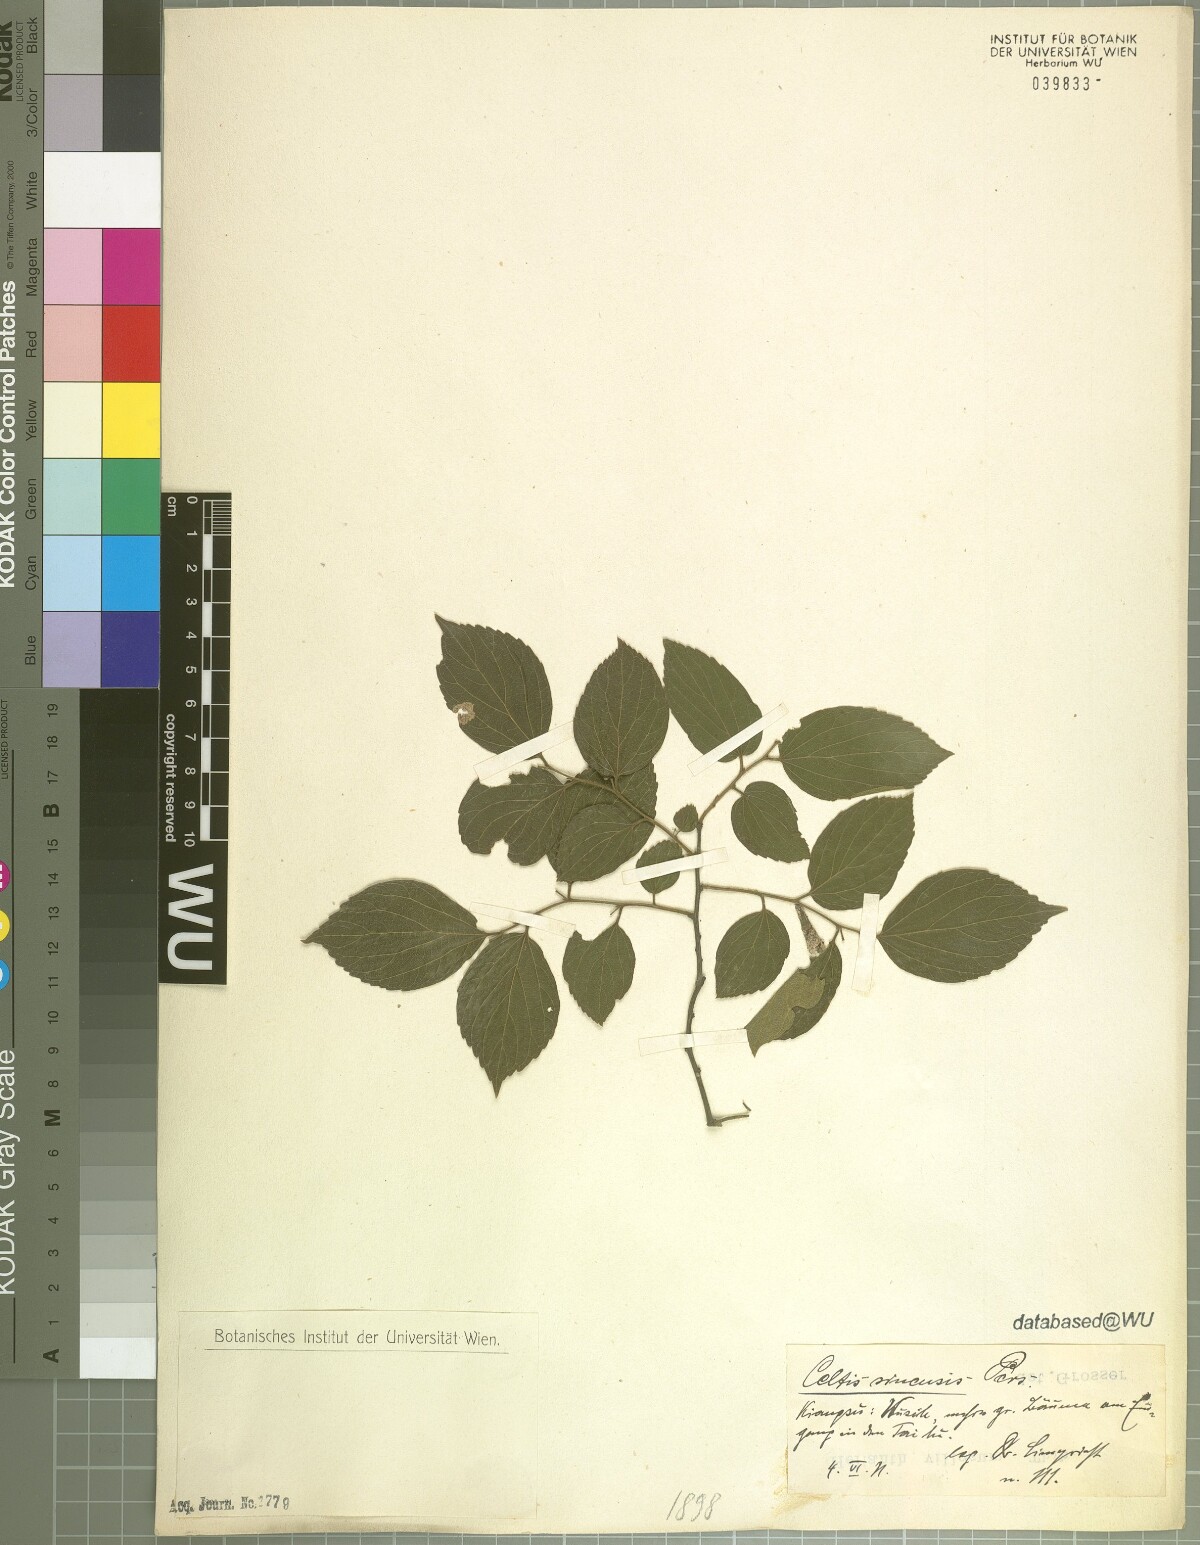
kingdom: Plantae
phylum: Tracheophyta
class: Magnoliopsida
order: Rosales
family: Cannabaceae
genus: Celtis
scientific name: Celtis sinensis
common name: Chinese hackberry
